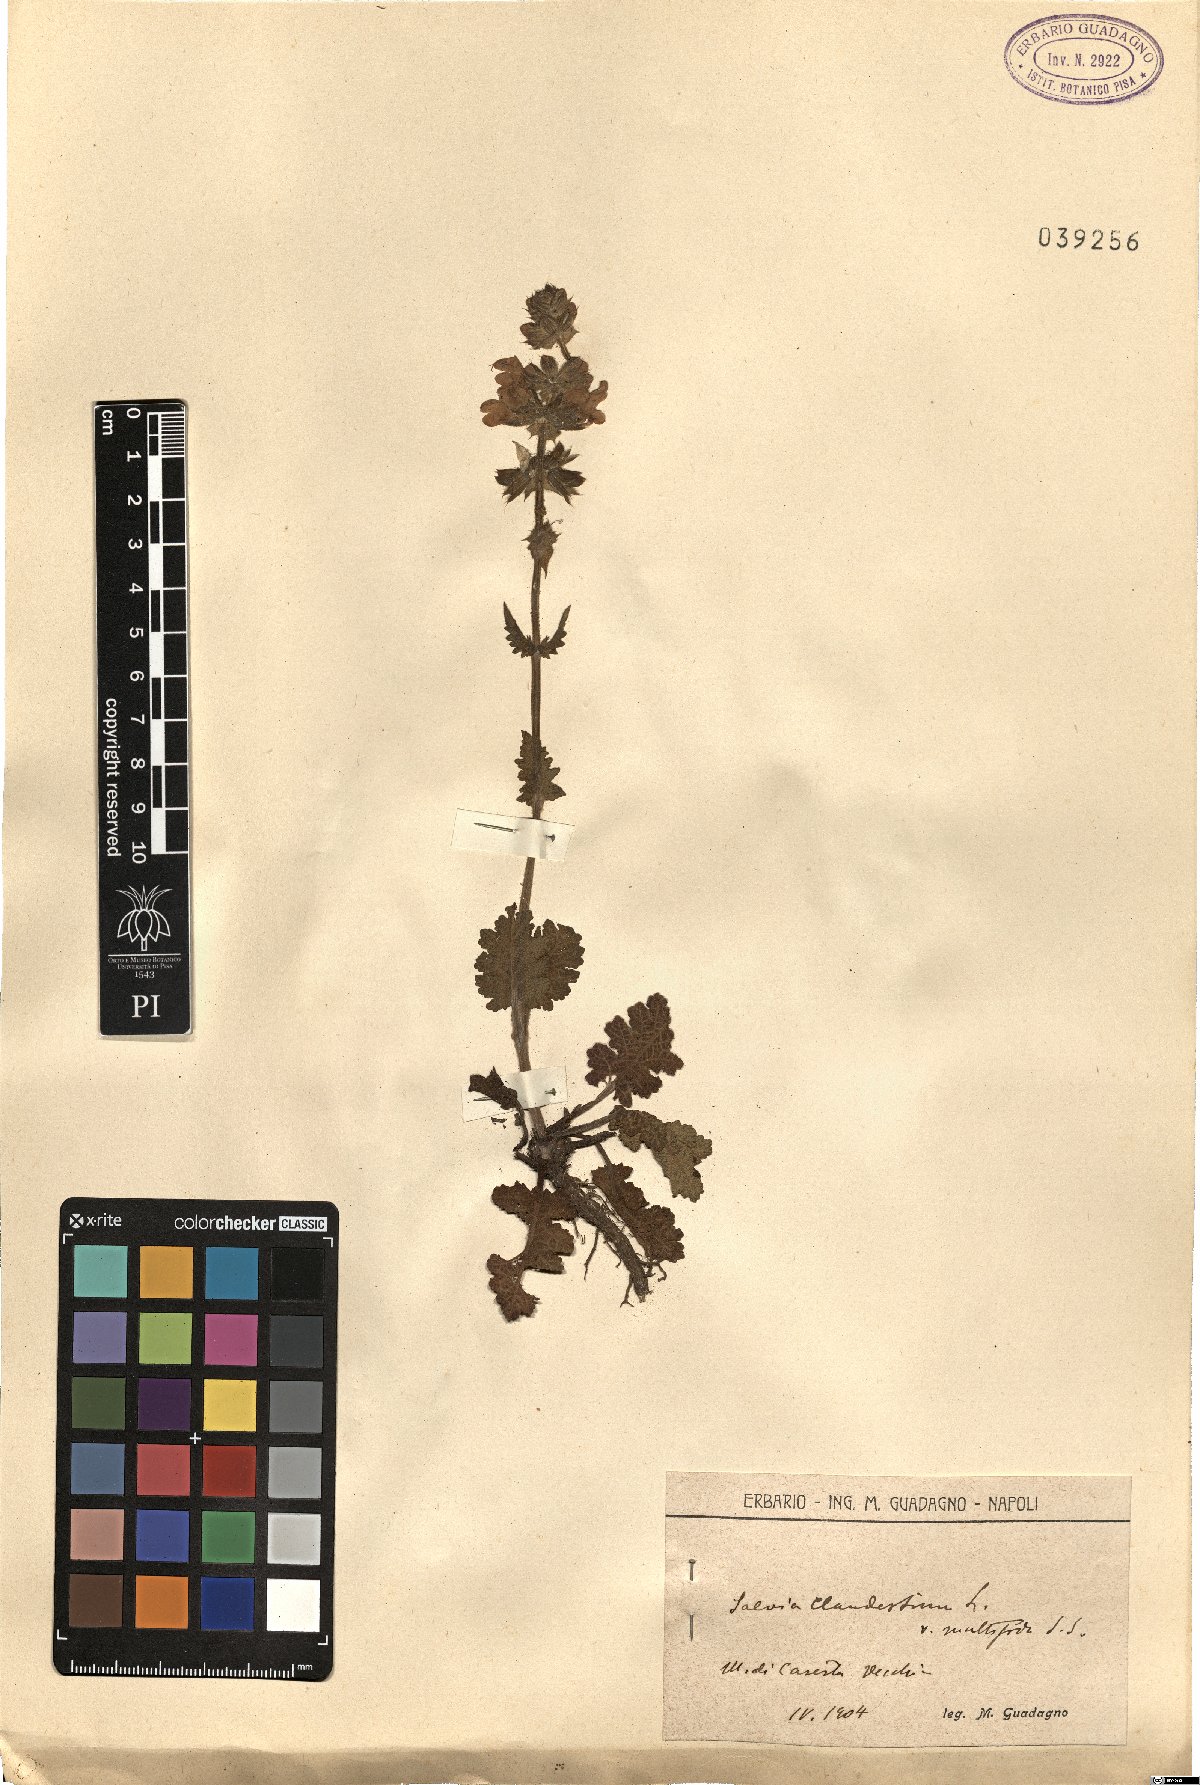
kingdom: Plantae
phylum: Tracheophyta
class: Magnoliopsida
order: Lamiales
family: Lamiaceae
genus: Salvia
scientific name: Salvia verbenaca
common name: Wild clary
